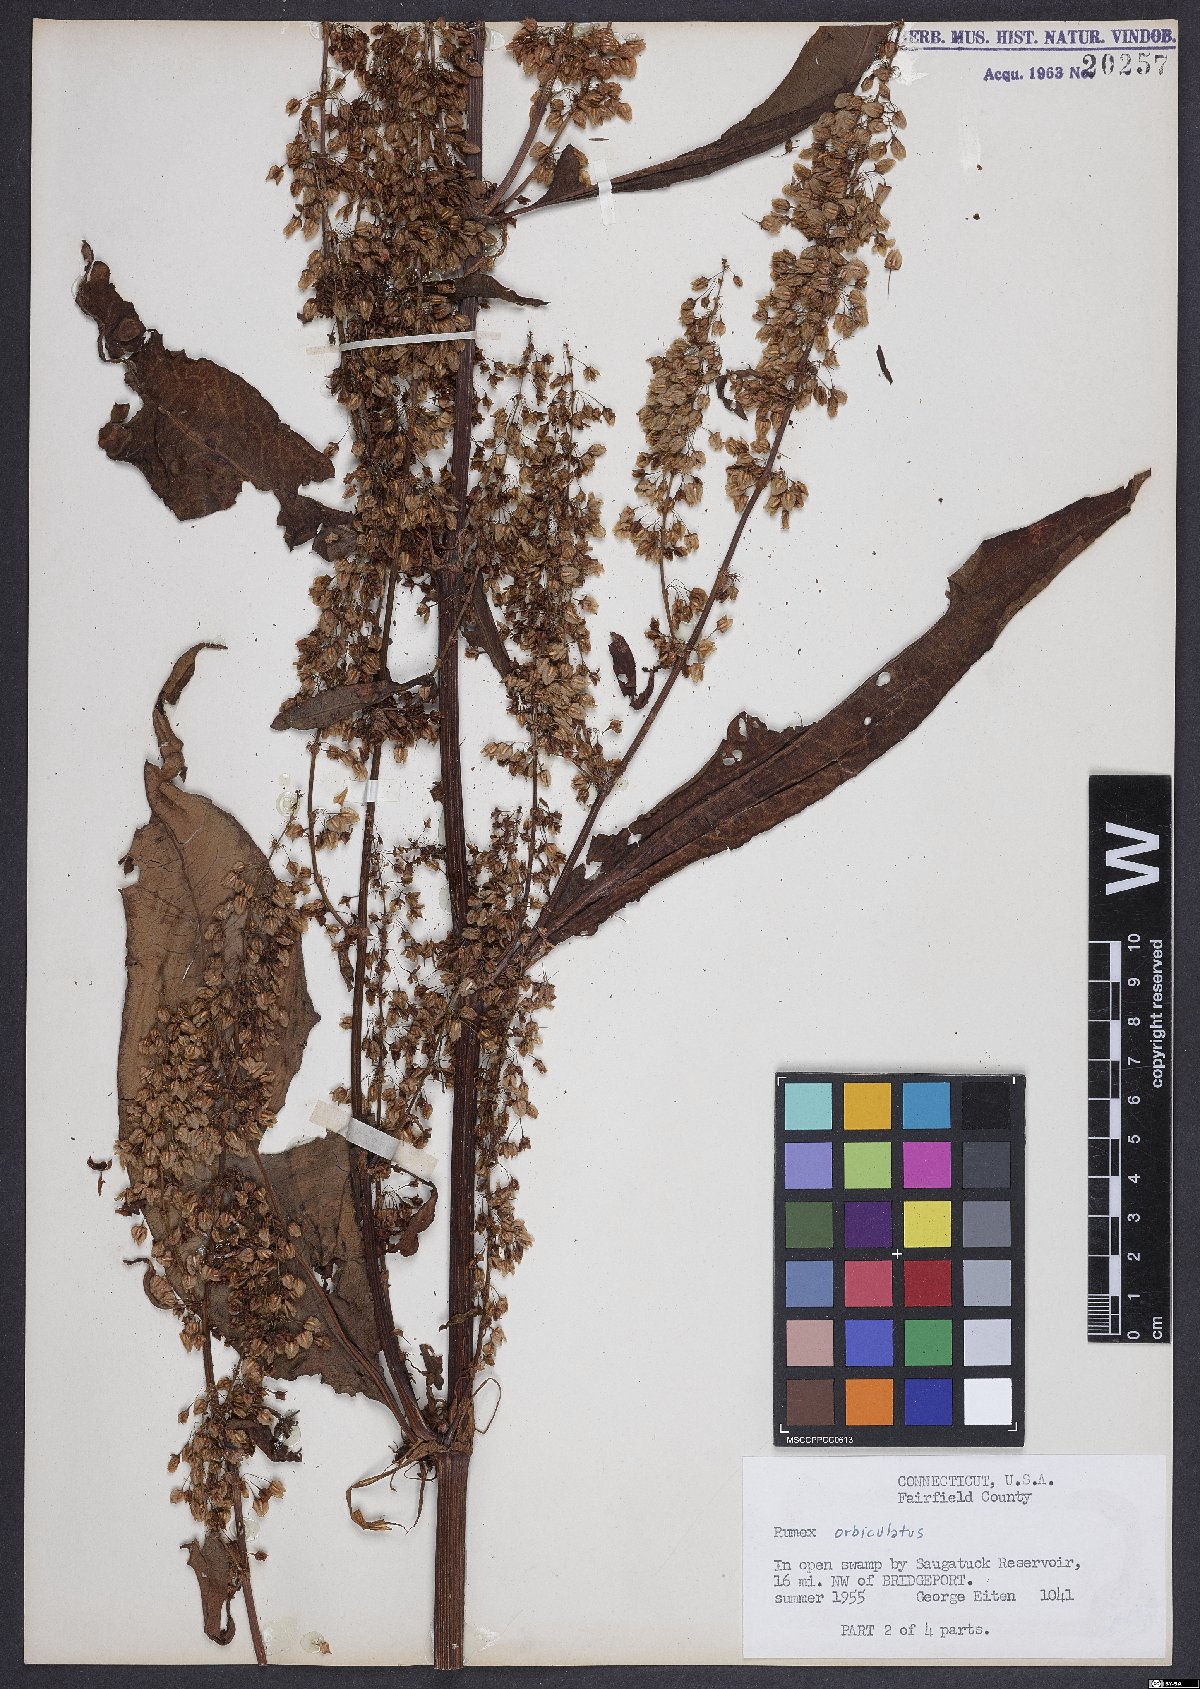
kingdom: Plantae
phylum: Tracheophyta
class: Magnoliopsida
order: Caryophyllales
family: Polygonaceae
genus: Rumex
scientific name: Rumex orbiculatus
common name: Greater water dock
